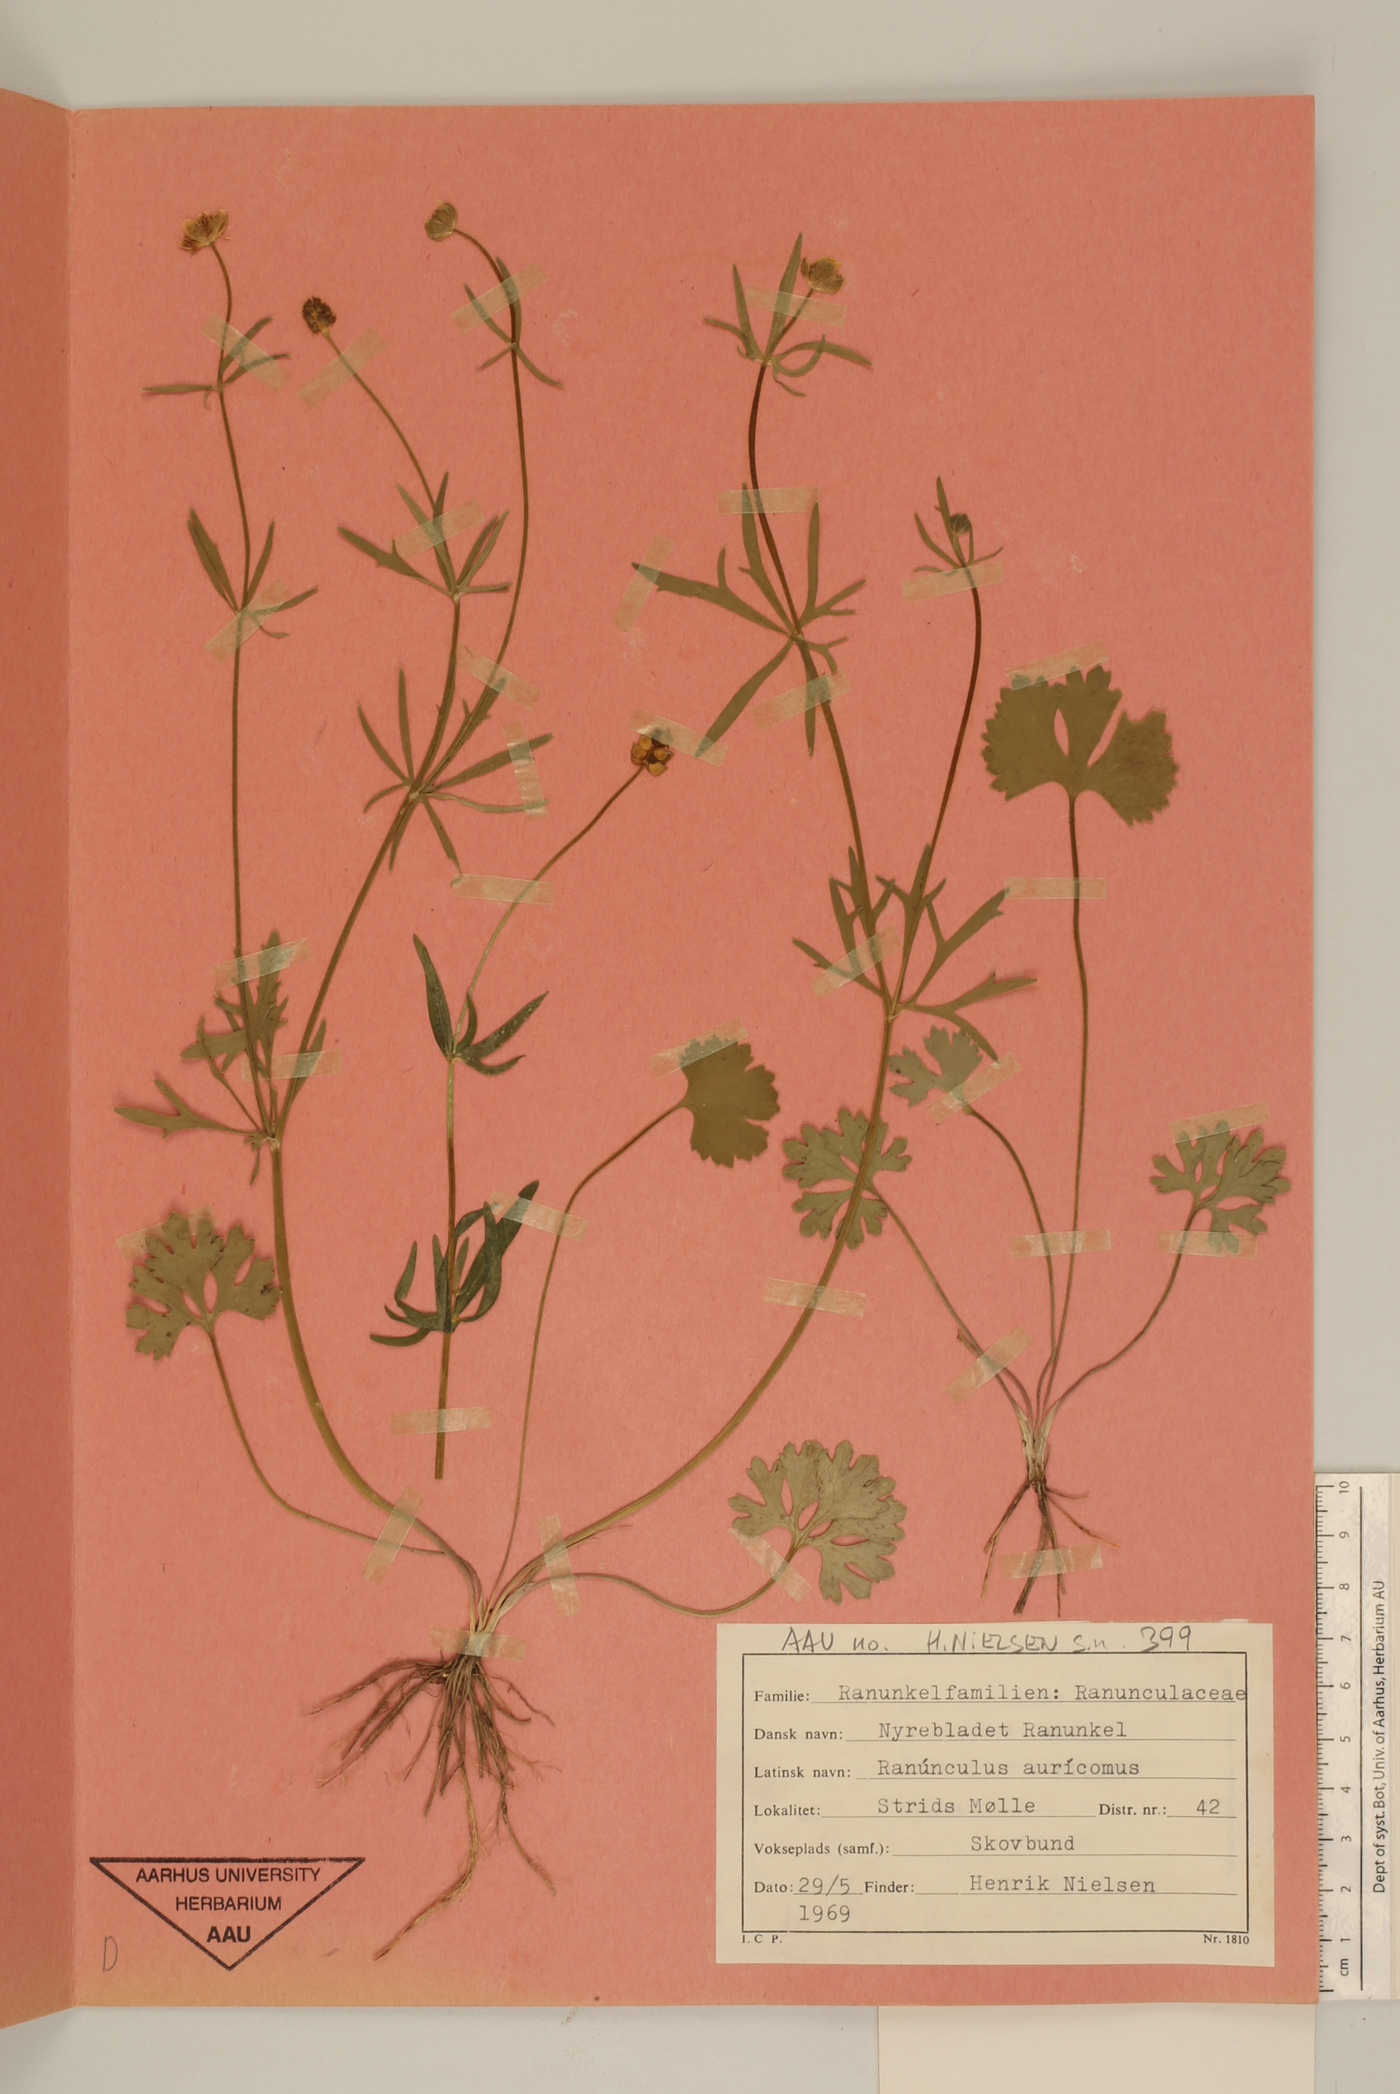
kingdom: Plantae
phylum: Tracheophyta
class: Magnoliopsida
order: Ranunculales
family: Ranunculaceae
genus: Ranunculus
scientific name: Ranunculus auricomus
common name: Goldilocks buttercup
